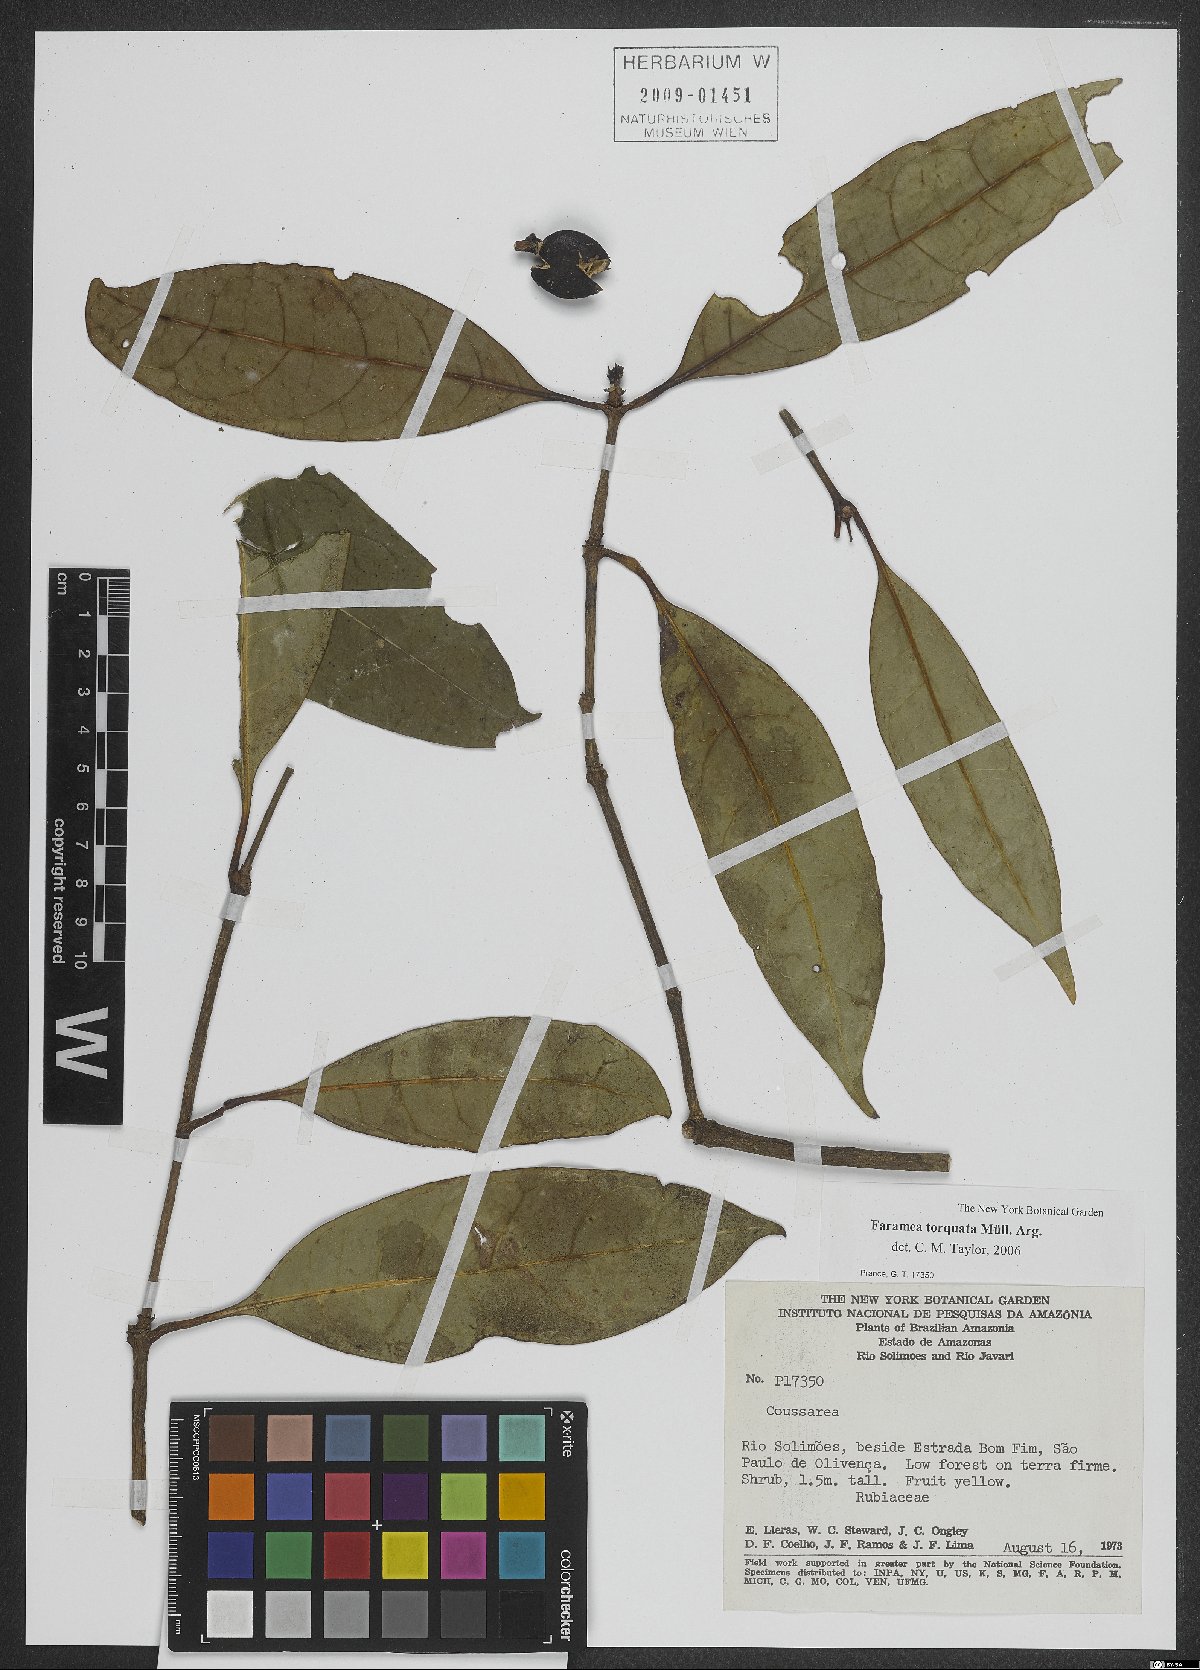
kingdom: Plantae
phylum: Tracheophyta
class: Magnoliopsida
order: Gentianales
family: Rubiaceae
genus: Faramea
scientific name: Faramea torquata
